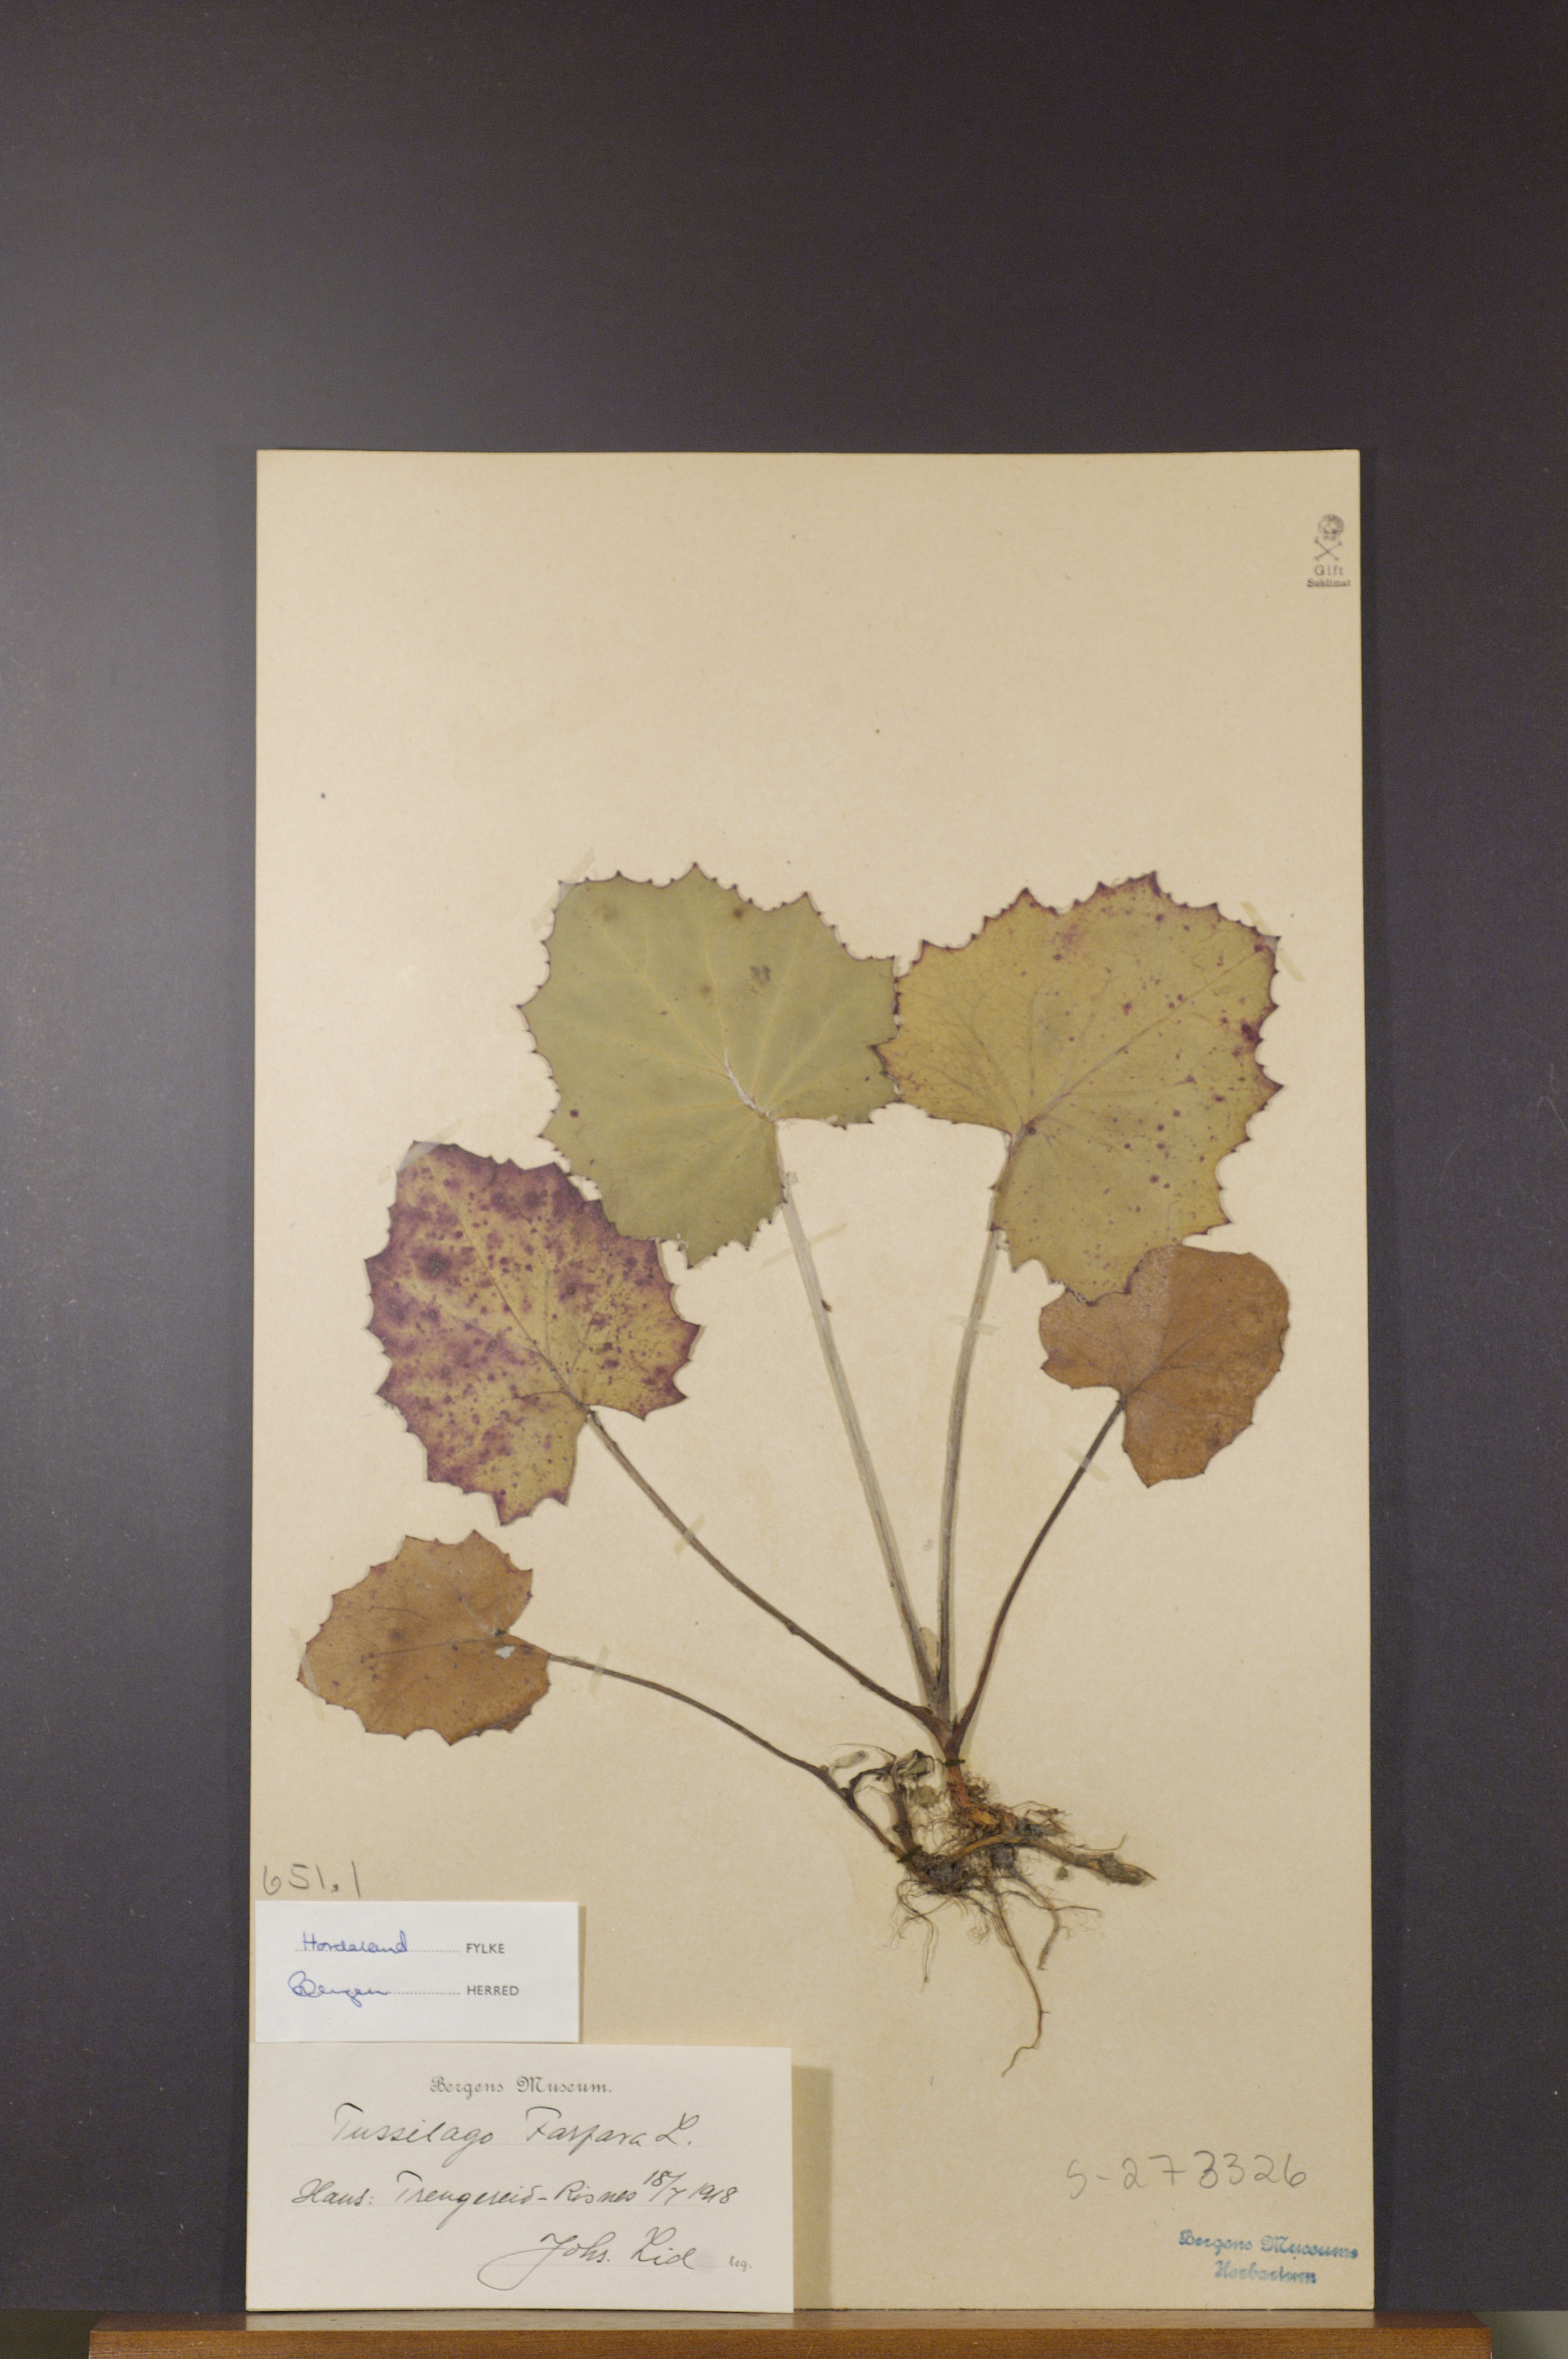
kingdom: Plantae
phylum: Tracheophyta
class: Magnoliopsida
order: Asterales
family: Asteraceae
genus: Tussilago
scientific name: Tussilago farfara
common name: Coltsfoot
